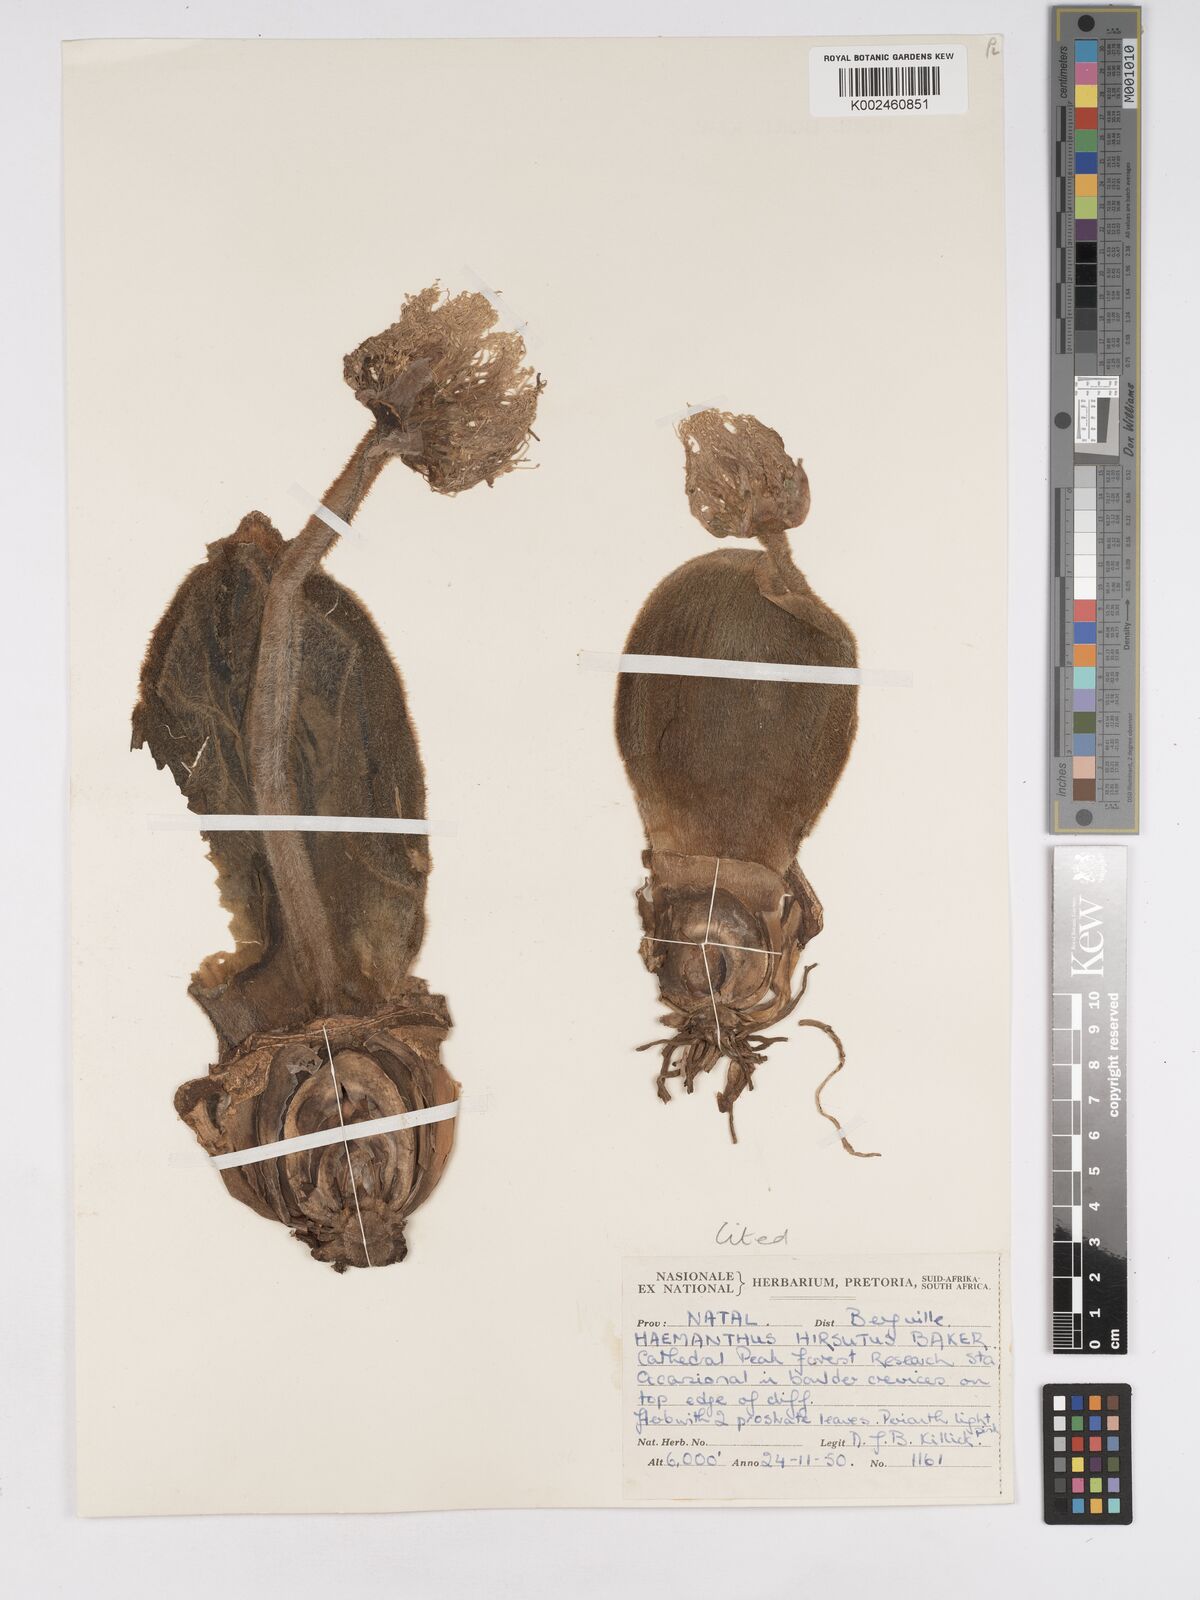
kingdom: Plantae
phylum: Tracheophyta
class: Liliopsida
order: Asparagales
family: Amaryllidaceae
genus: Haemanthus
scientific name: Haemanthus humilis
